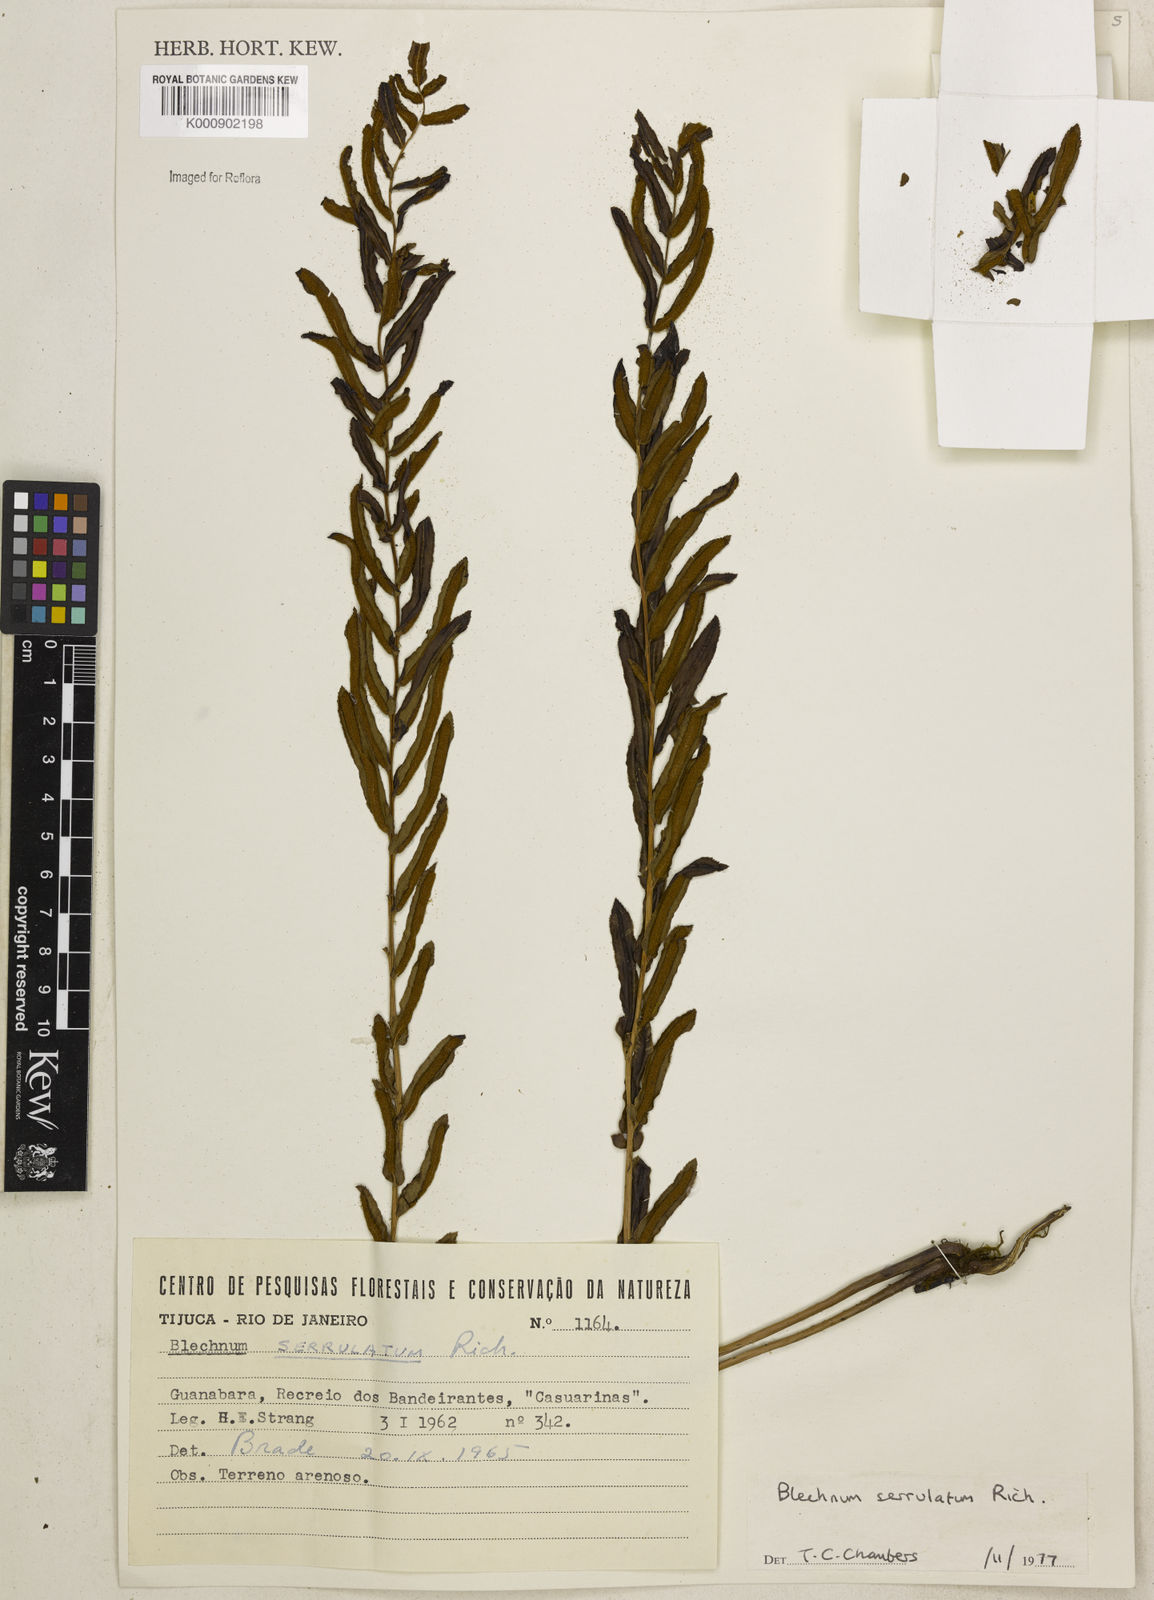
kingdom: Plantae
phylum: Tracheophyta
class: Polypodiopsida
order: Polypodiales
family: Blechnaceae
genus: Telmatoblechnum
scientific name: Telmatoblechnum serrulatum
